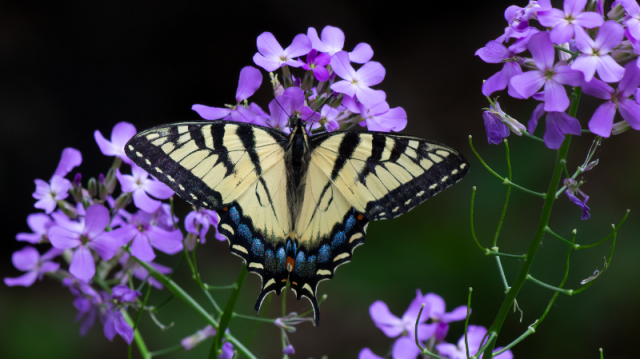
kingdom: Animalia
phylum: Arthropoda
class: Insecta
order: Lepidoptera
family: Papilionidae
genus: Pterourus
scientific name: Pterourus canadensis
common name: Canadian Tiger Swallowtail
